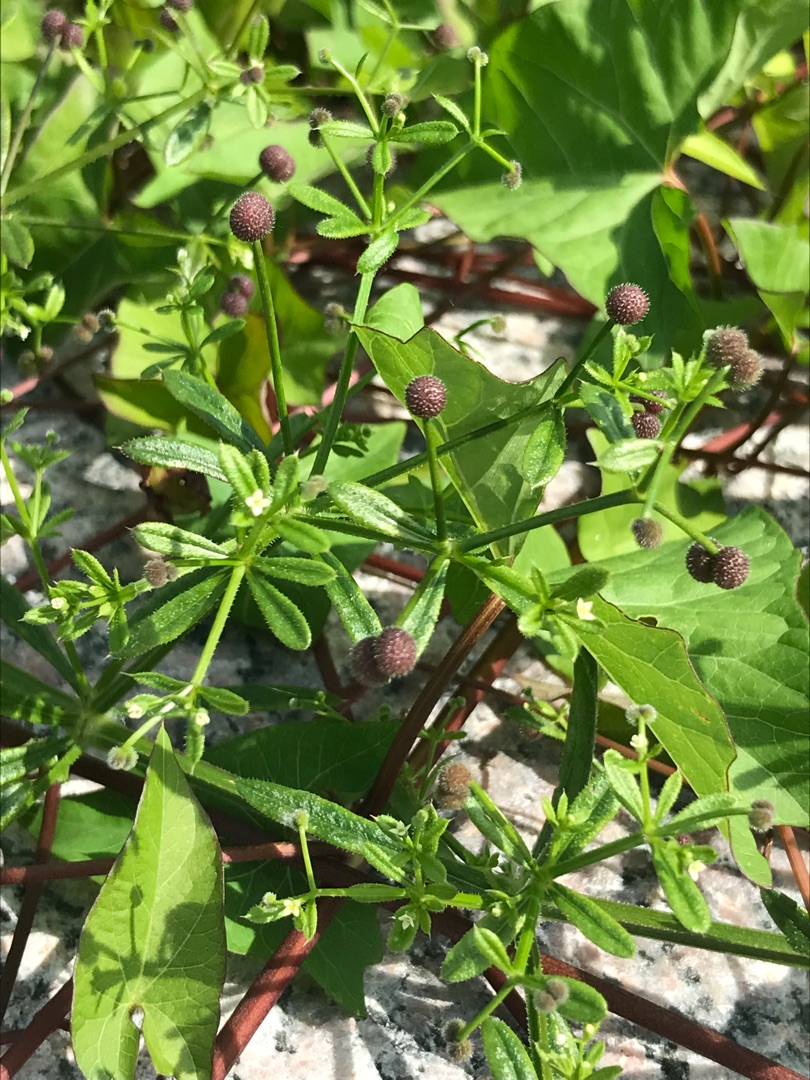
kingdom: Plantae
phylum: Tracheophyta
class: Magnoliopsida
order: Gentianales
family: Rubiaceae
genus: Galium
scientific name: Galium aparine
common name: Burre-snerre
